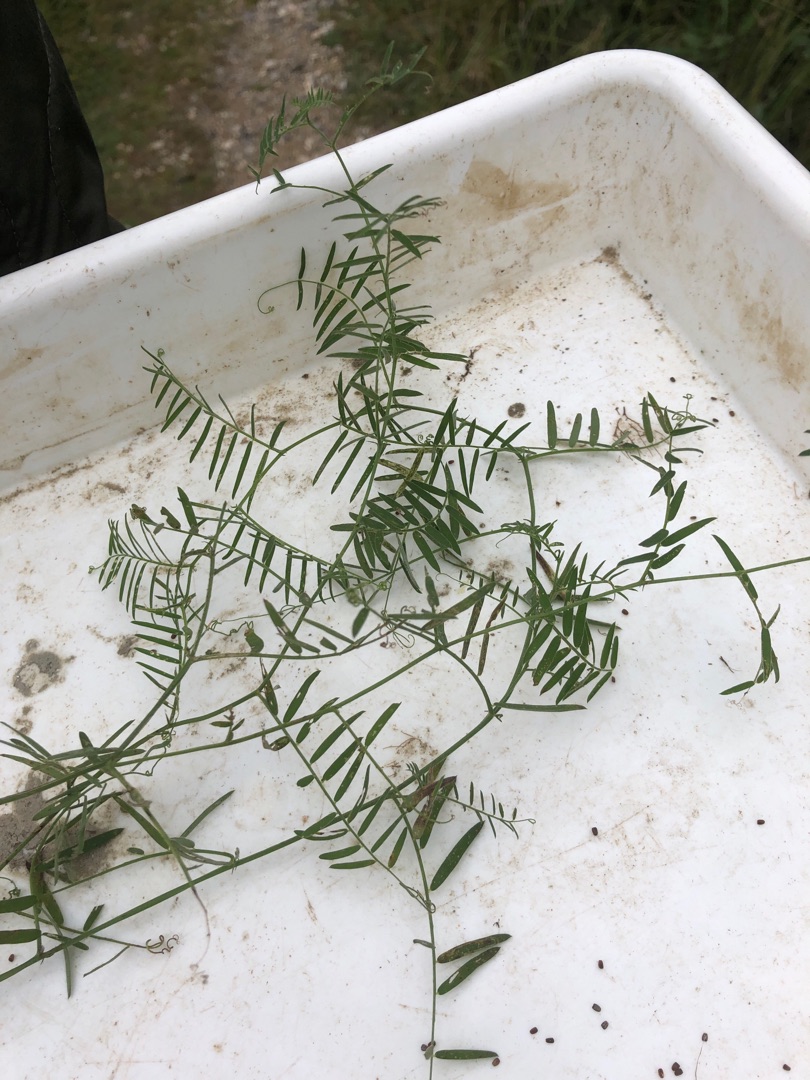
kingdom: Plantae
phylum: Tracheophyta
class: Magnoliopsida
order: Fabales
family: Fabaceae
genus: Vicia
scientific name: Vicia cracca
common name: Muse-vikke
